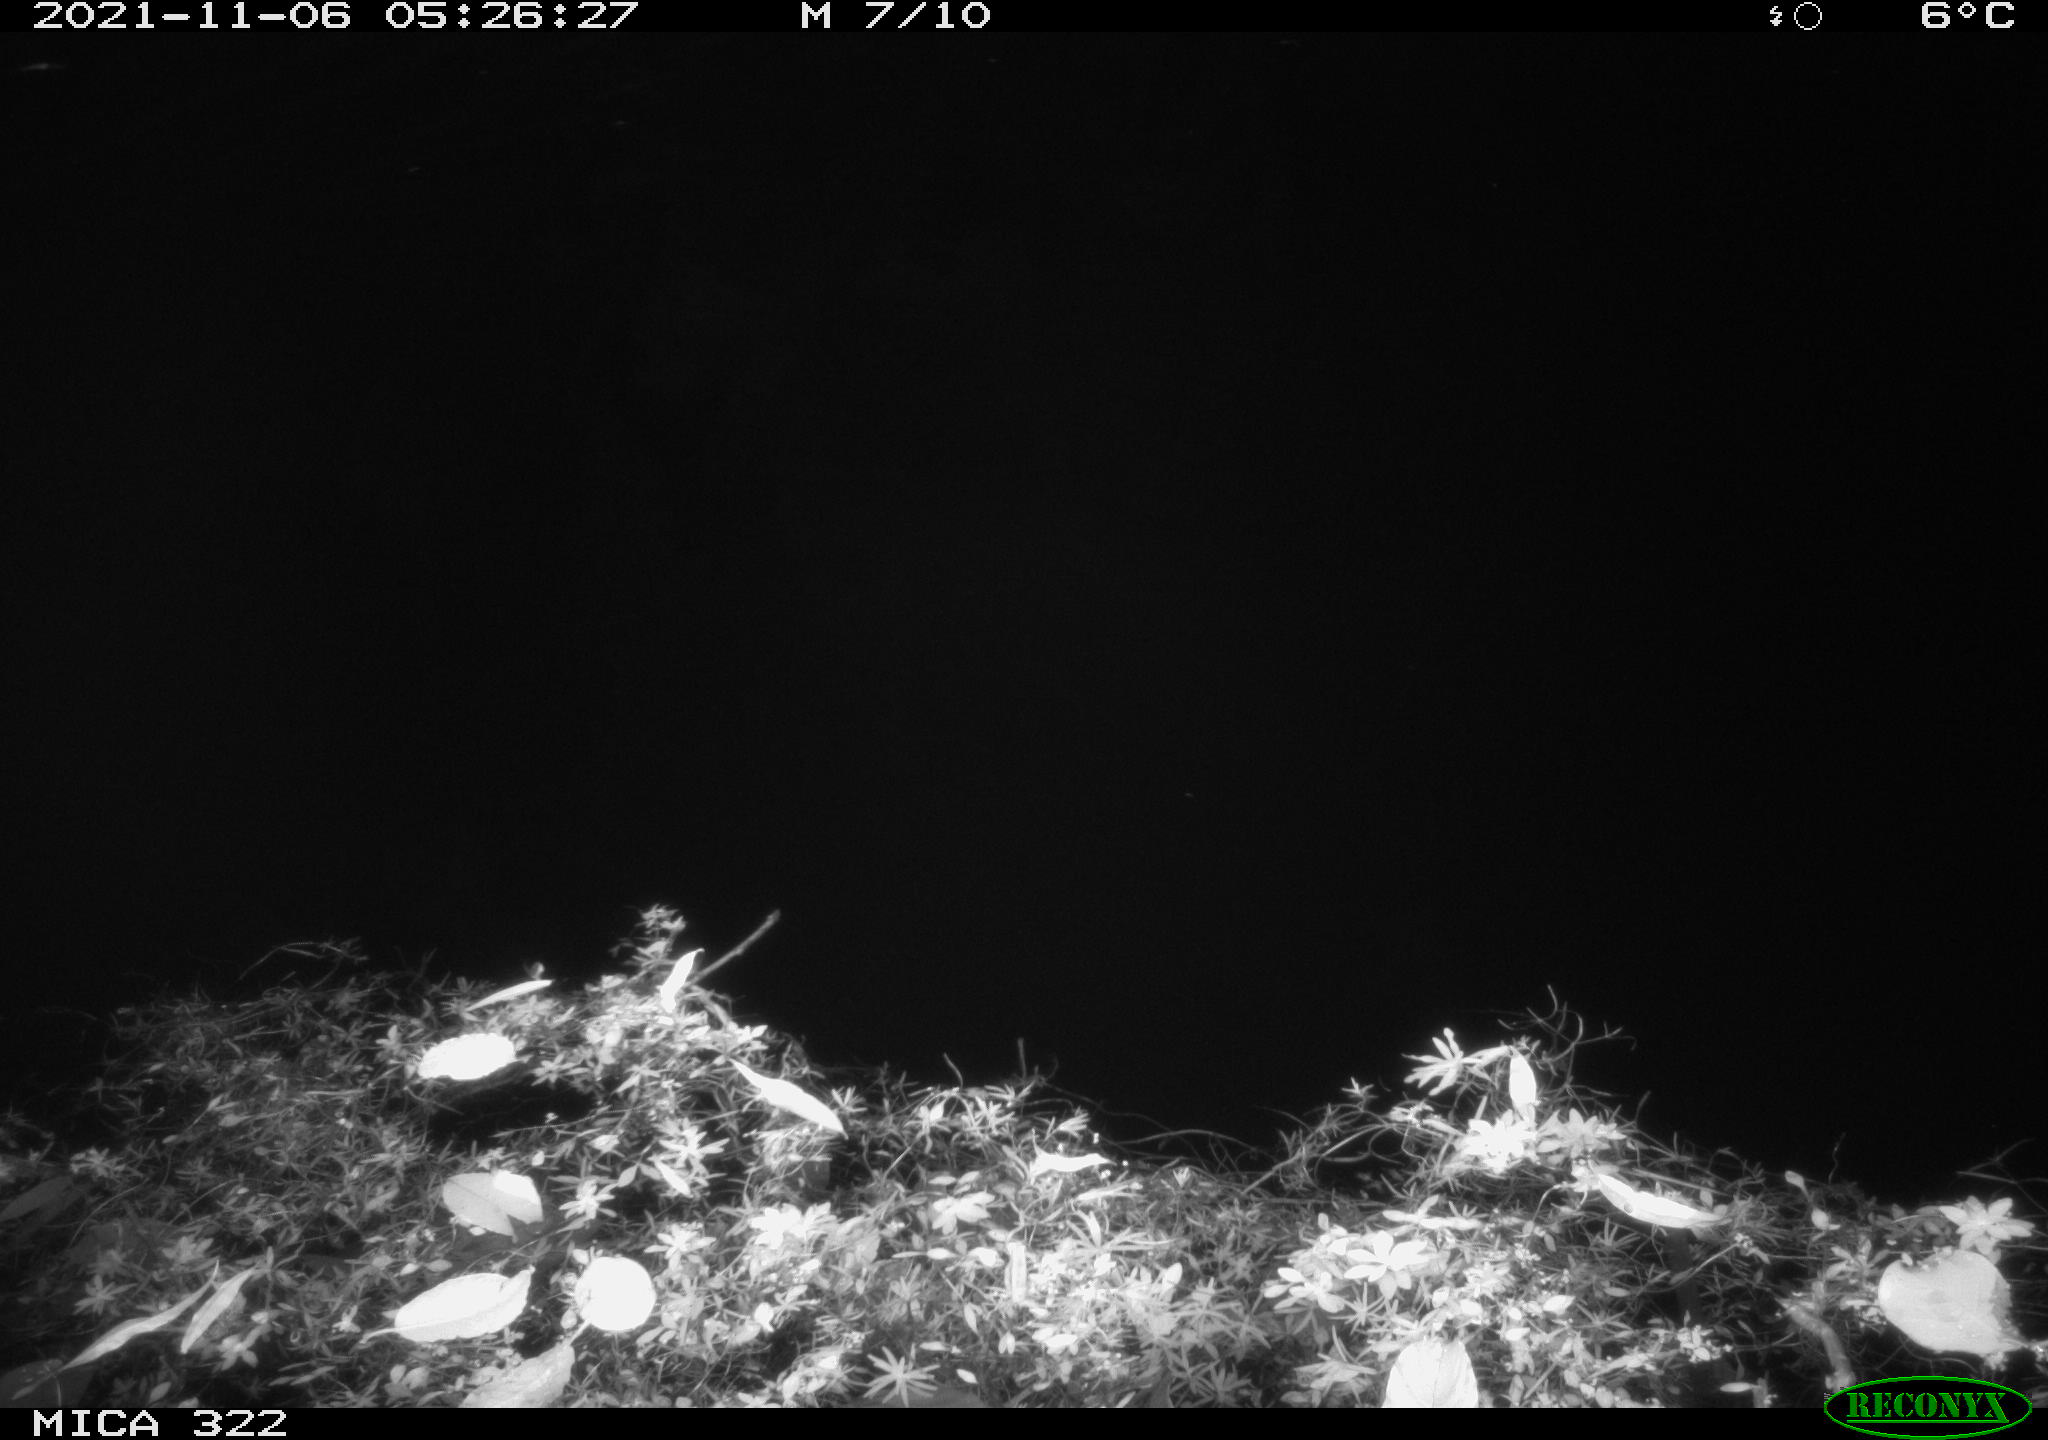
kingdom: Animalia
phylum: Chordata
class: Mammalia
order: Rodentia
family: Muridae
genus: Rattus
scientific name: Rattus norvegicus
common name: Brown rat
